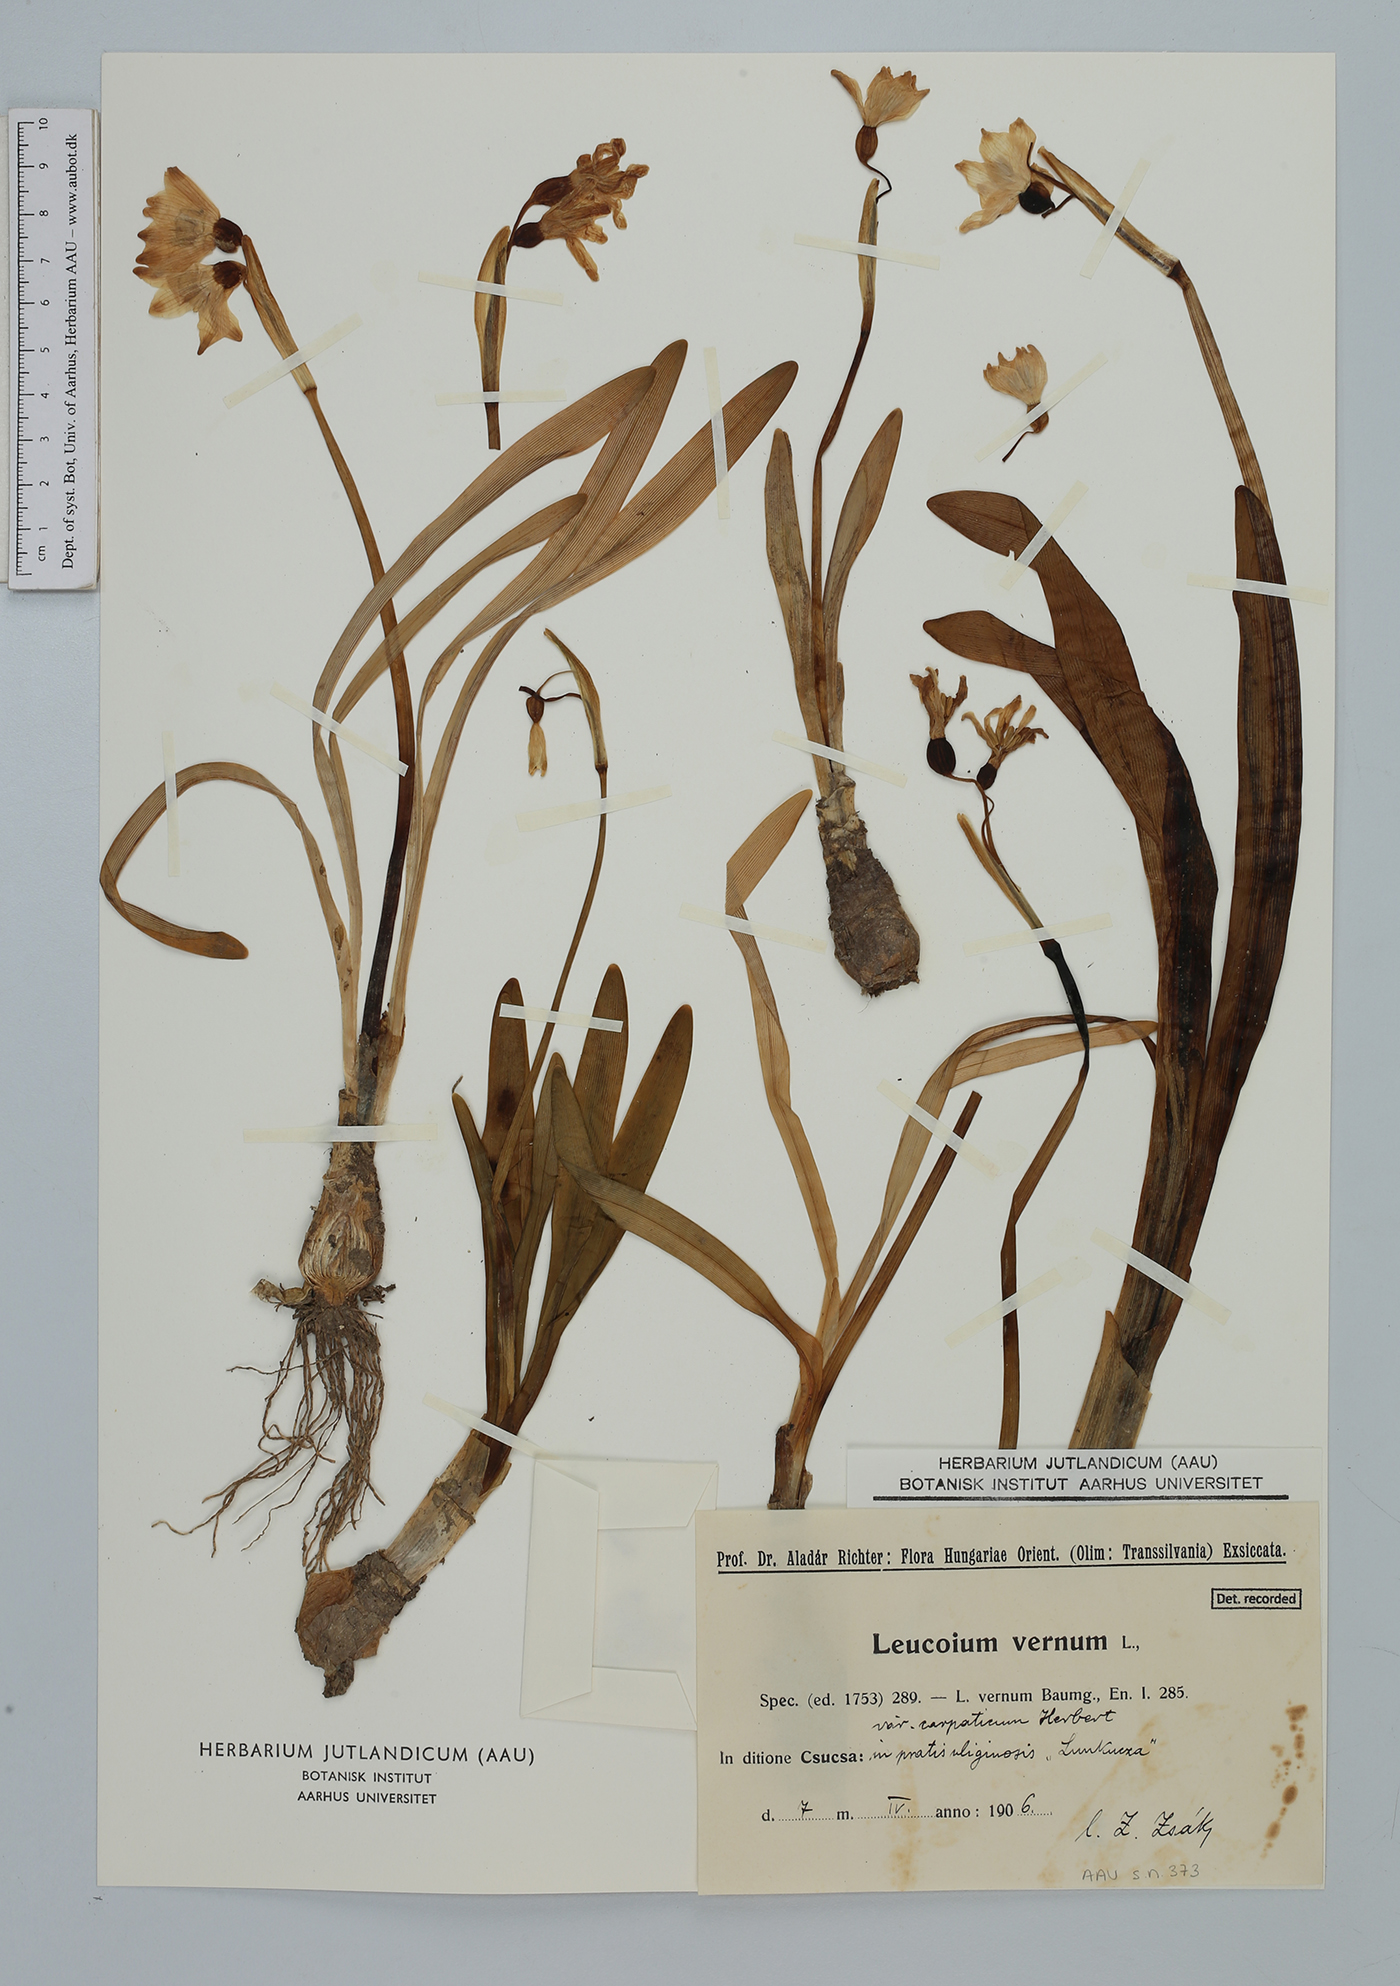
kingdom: Plantae
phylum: Tracheophyta
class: Liliopsida
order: Asparagales
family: Amaryllidaceae
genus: Leucojum
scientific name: Leucojum vernum
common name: Spring snowflake
